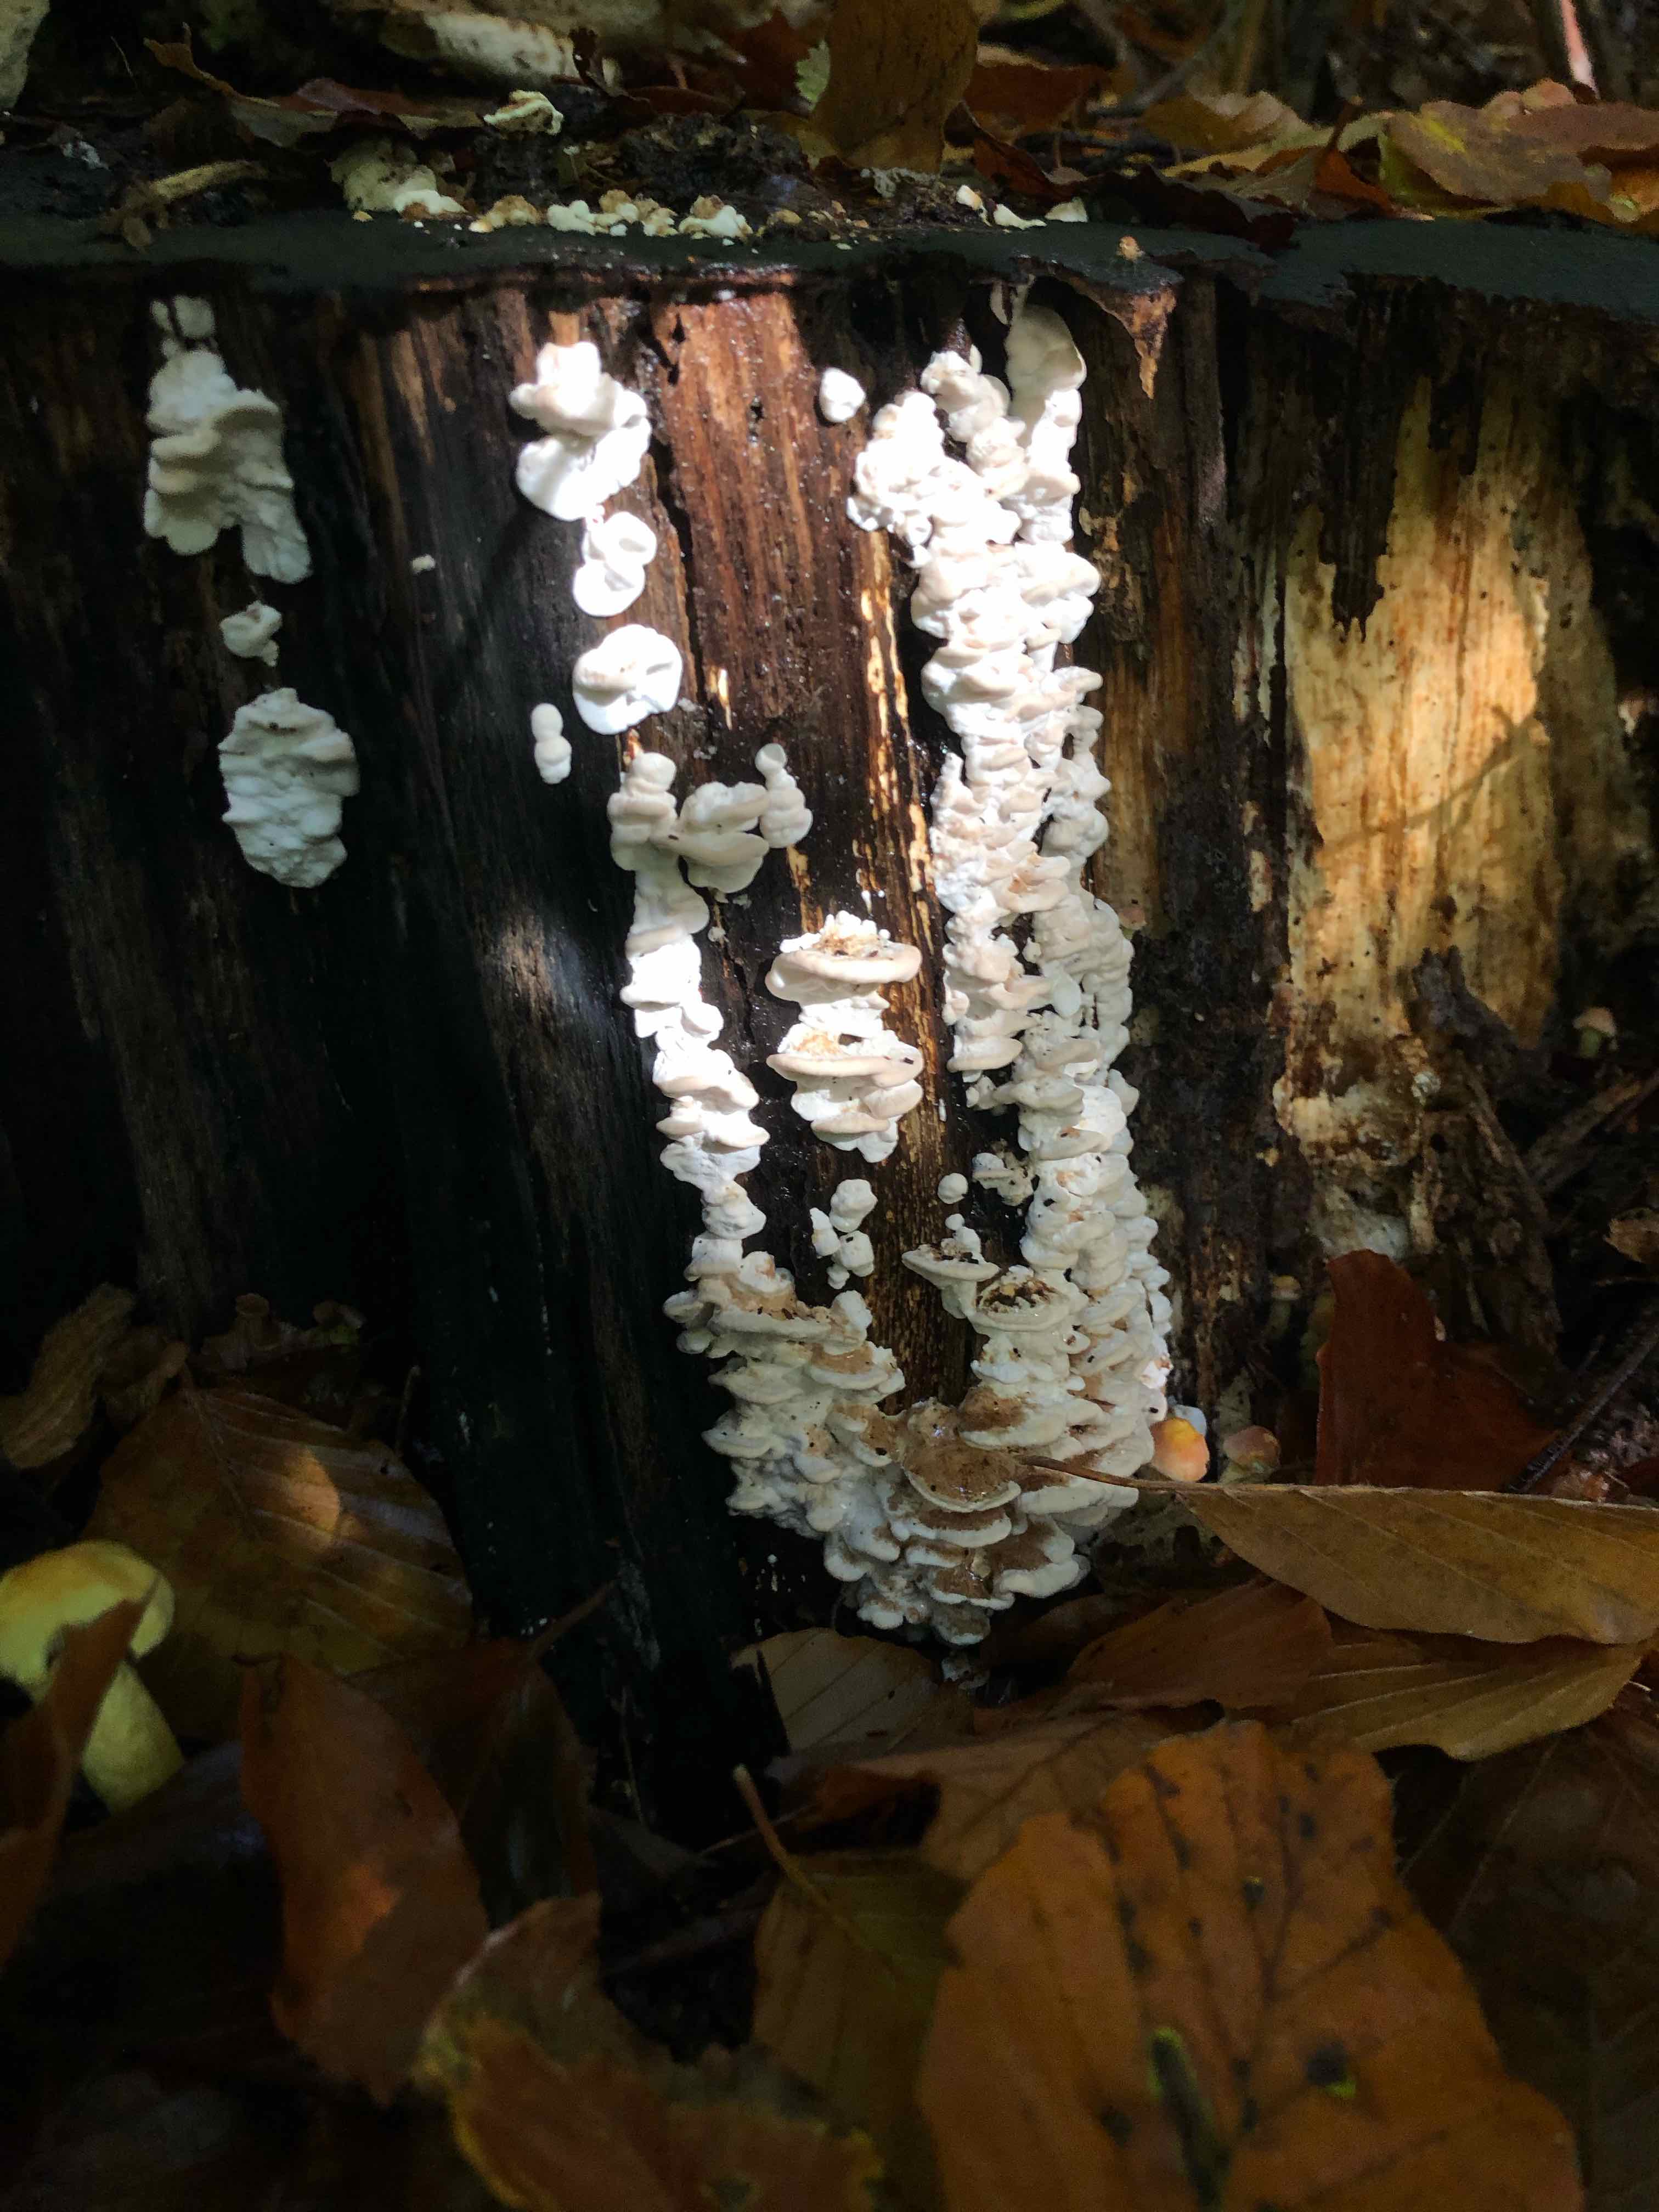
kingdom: Fungi
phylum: Basidiomycota
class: Agaricomycetes
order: Polyporales
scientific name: Polyporales
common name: poresvampordenen
